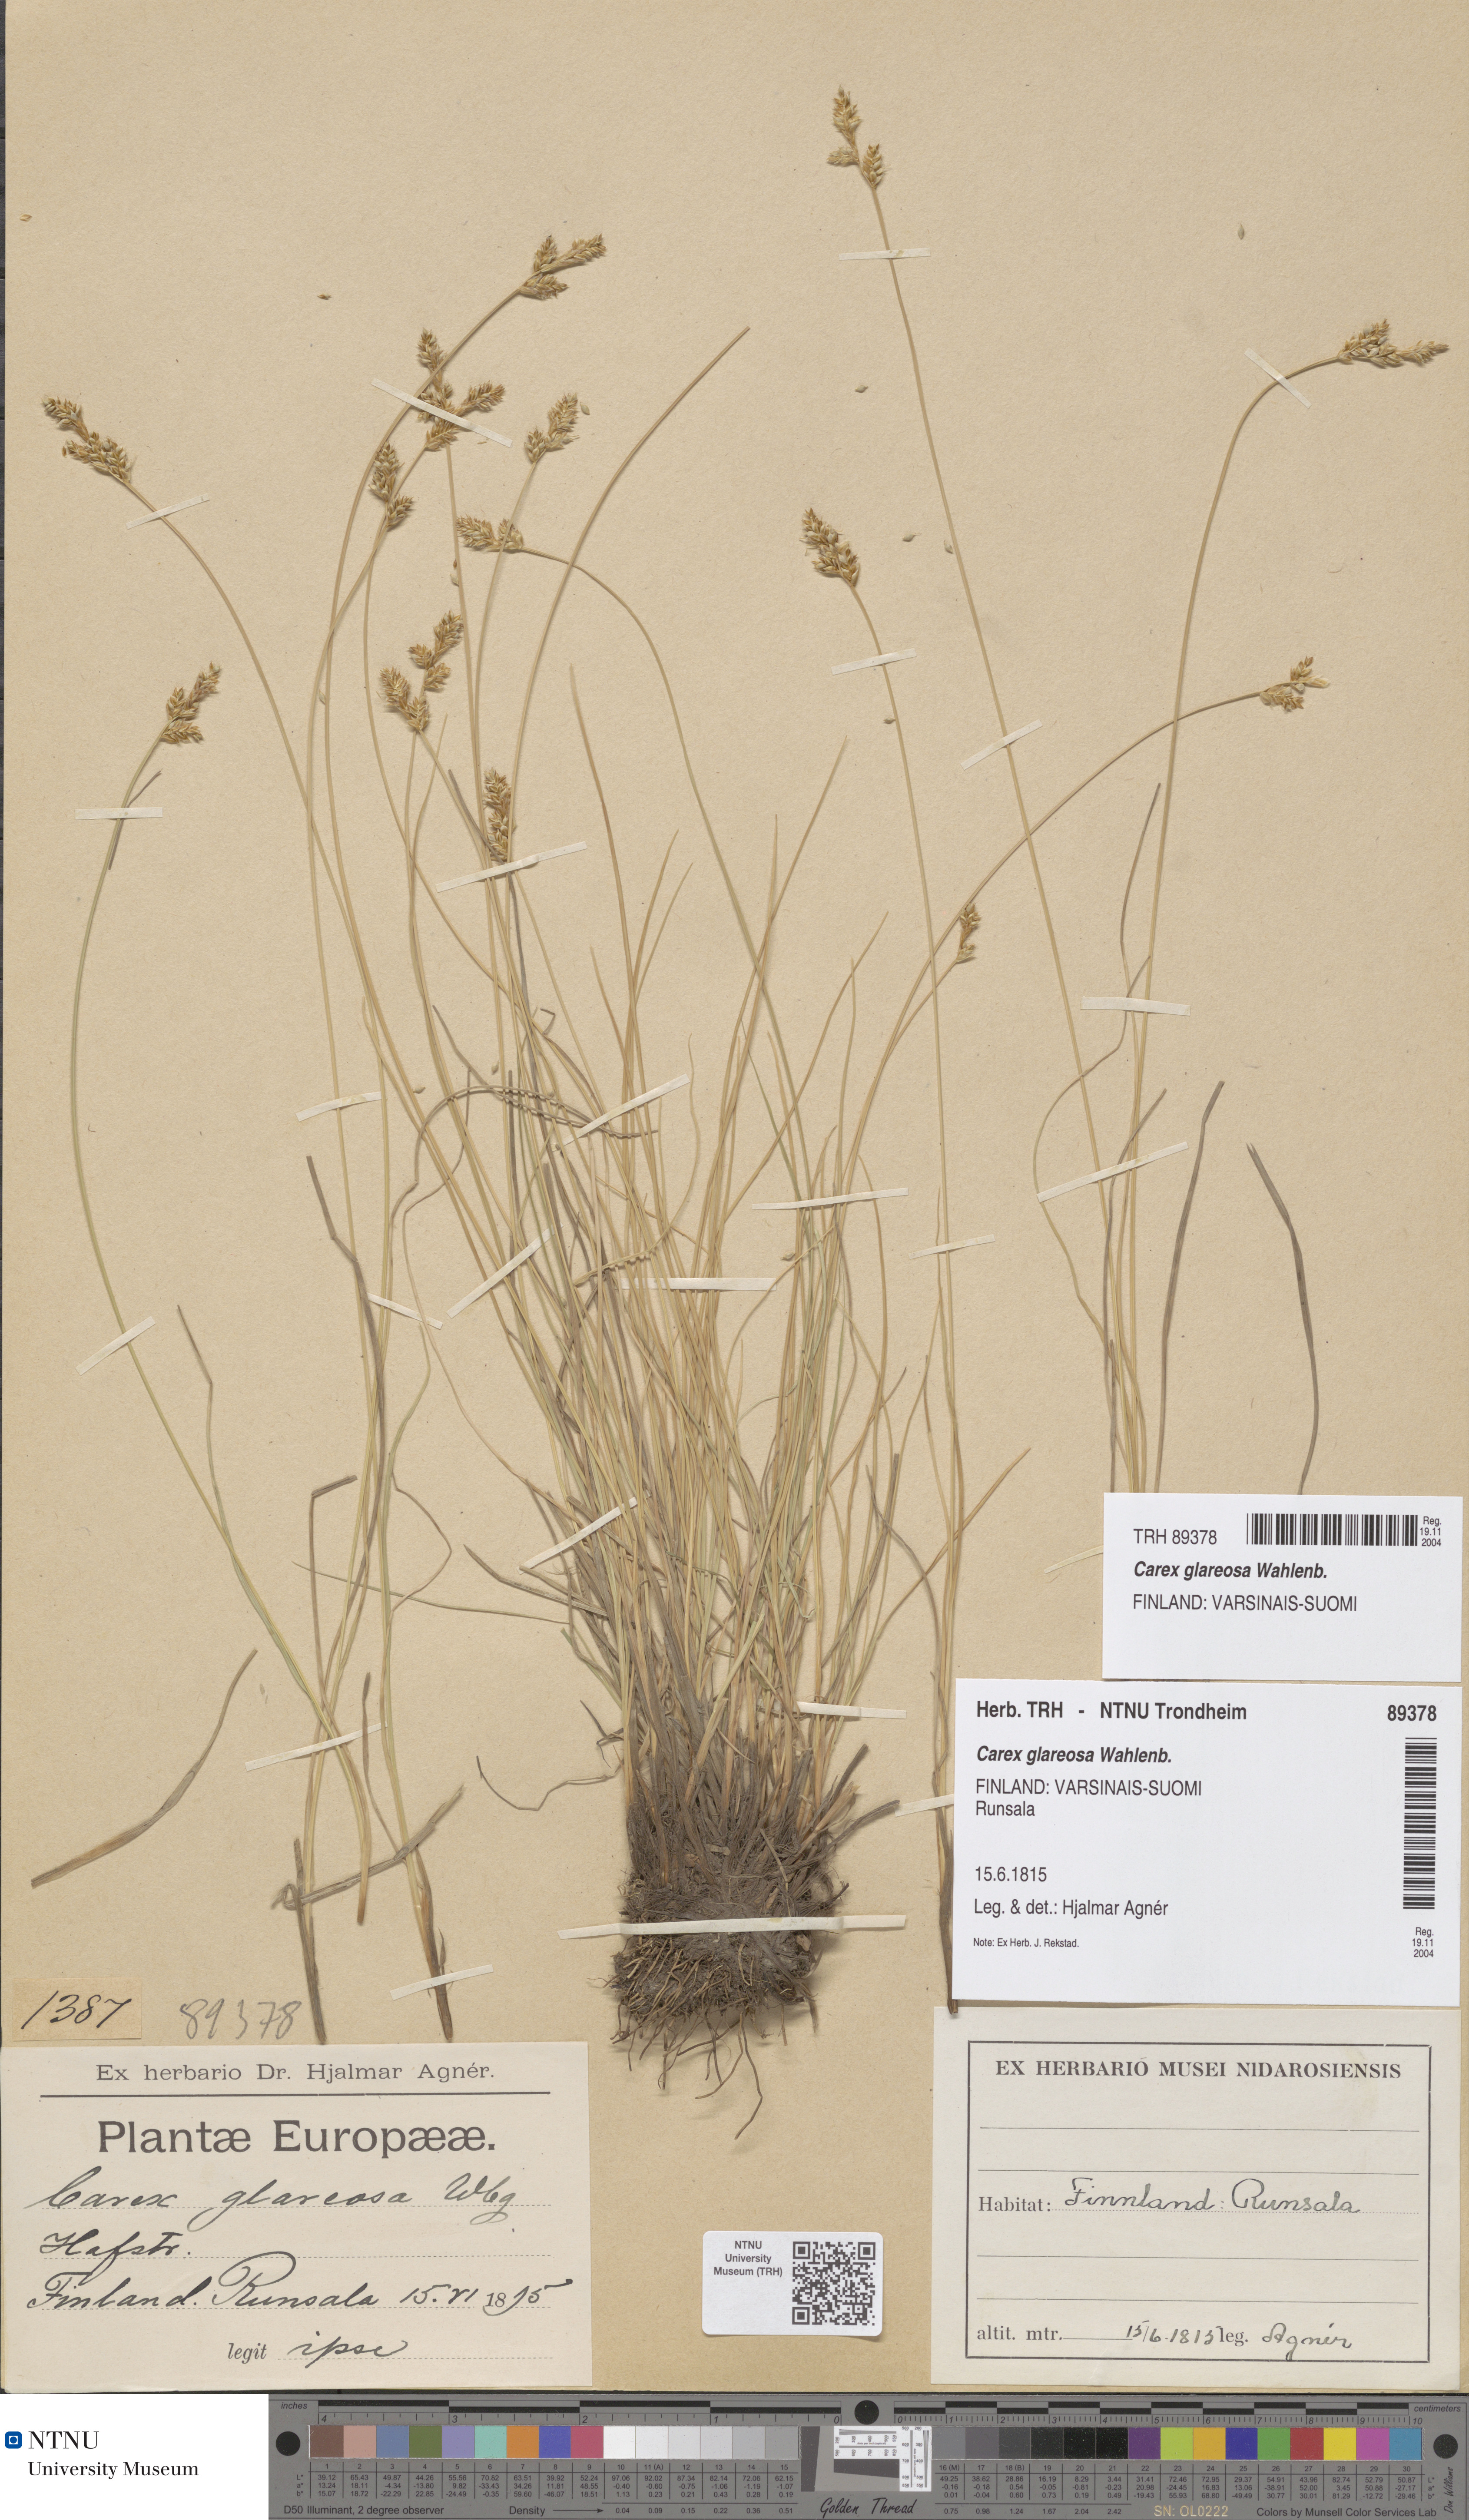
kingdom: Plantae
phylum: Tracheophyta
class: Liliopsida
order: Poales
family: Cyperaceae
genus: Carex
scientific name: Carex glareosa
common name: Clustered sedge
